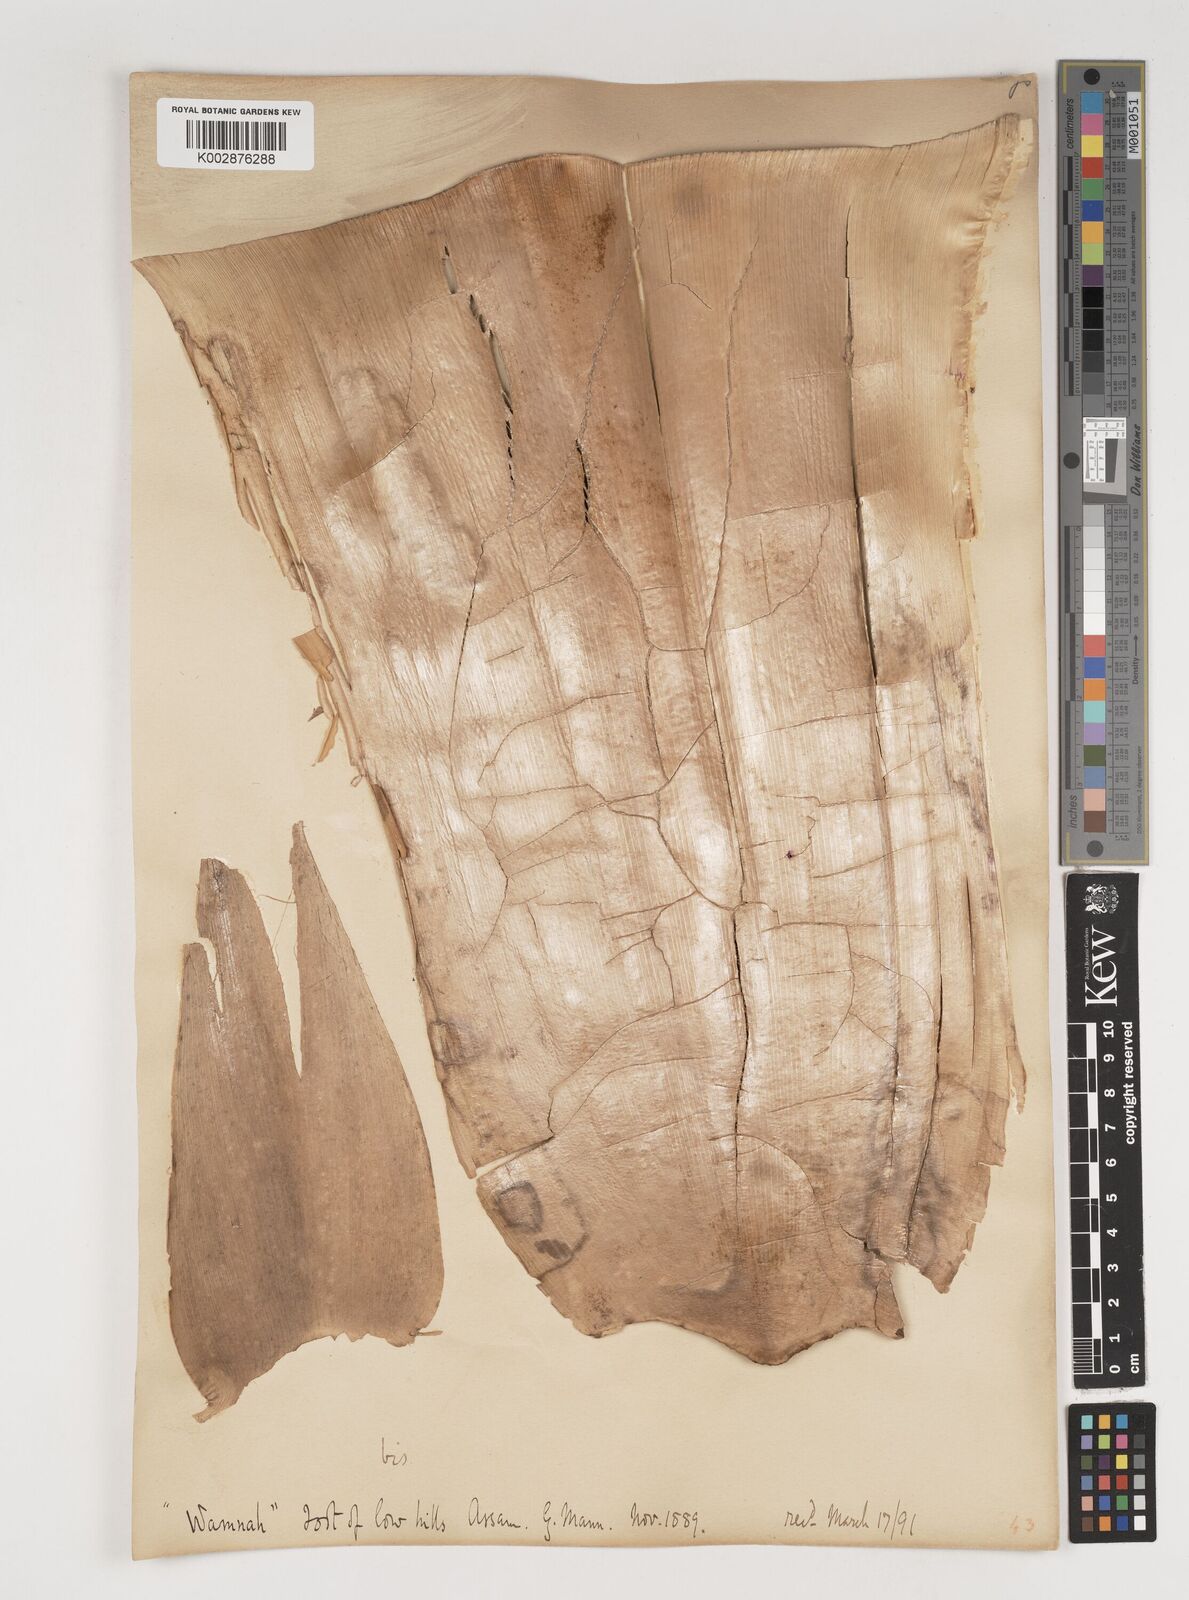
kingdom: Plantae
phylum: Tracheophyta
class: Liliopsida
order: Poales
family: Poaceae
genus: Bambusa
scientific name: Bambusa balcooa
